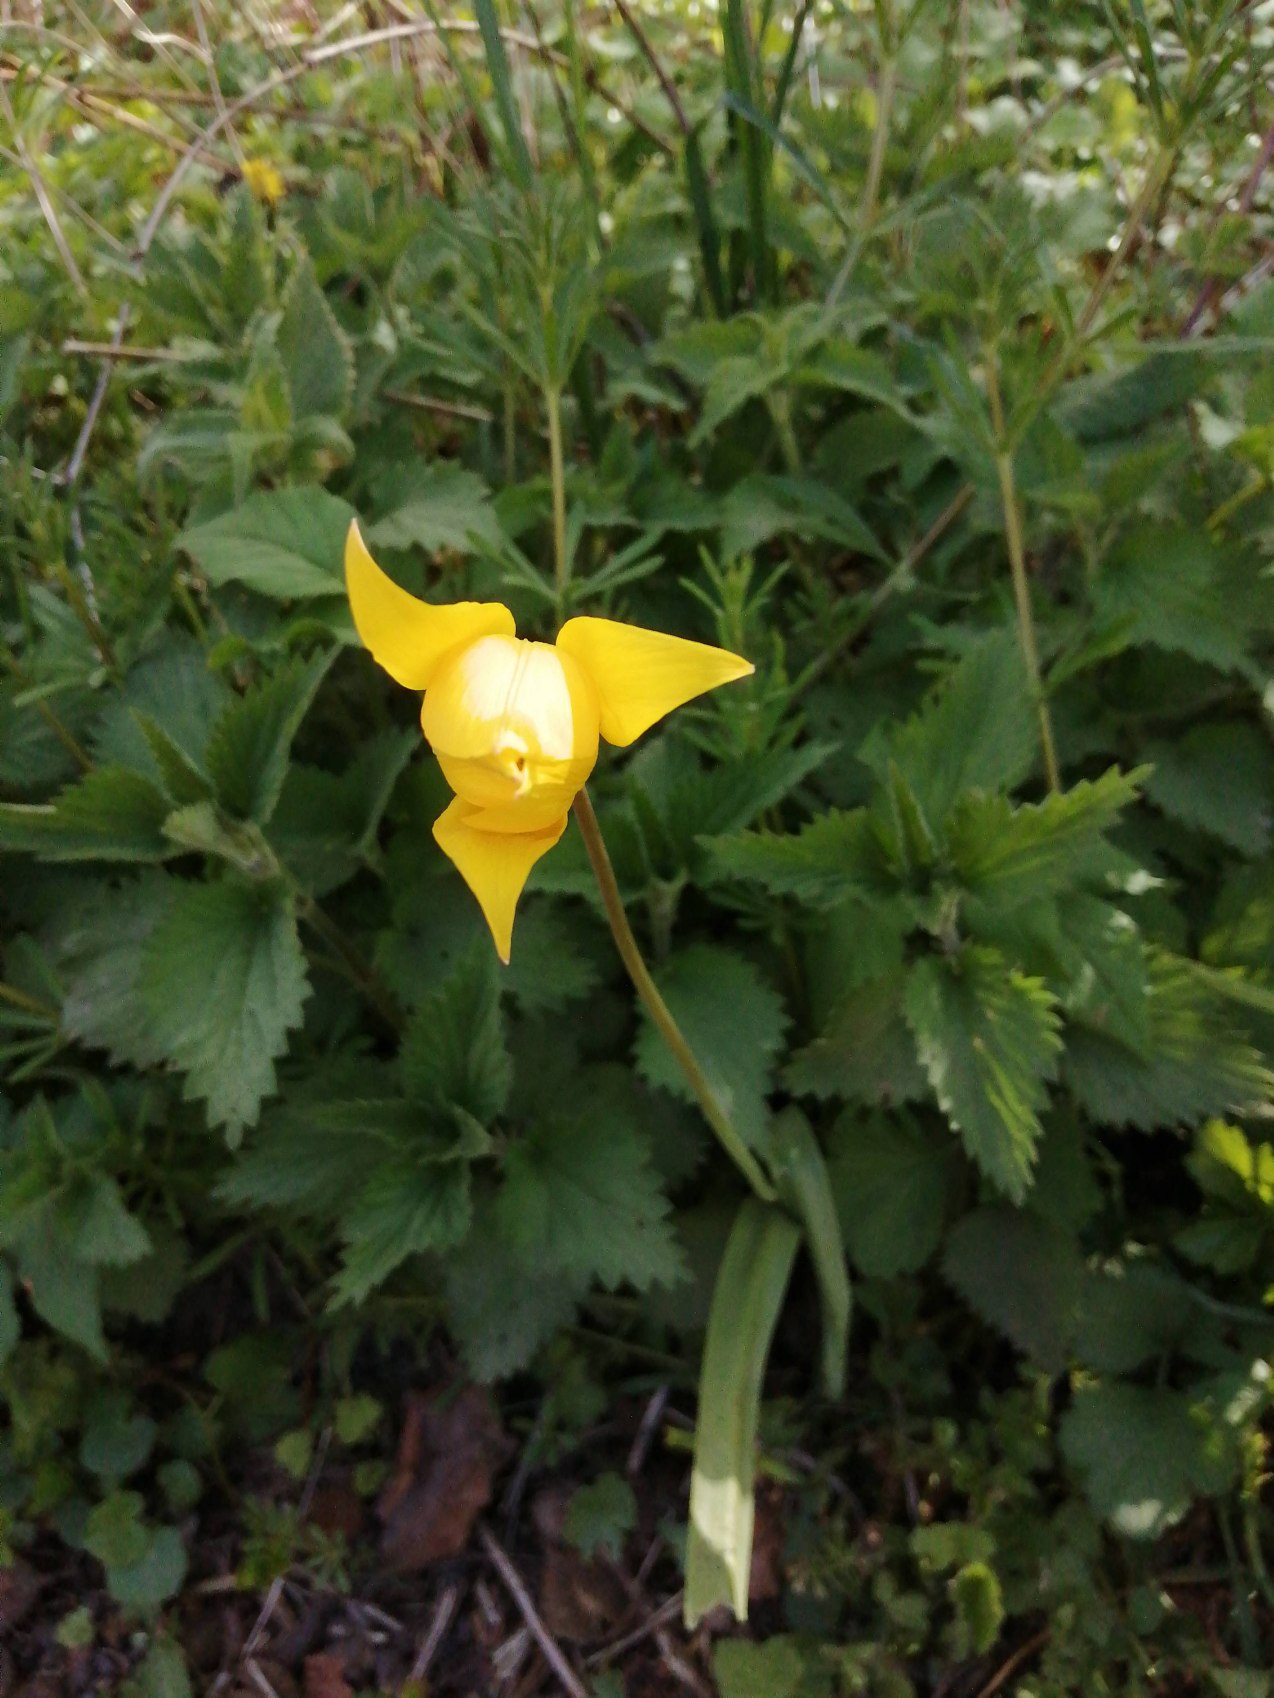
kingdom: Plantae
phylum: Tracheophyta
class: Liliopsida
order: Liliales
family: Liliaceae
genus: Tulipa
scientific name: Tulipa sylvestris
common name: Vild tulipan
